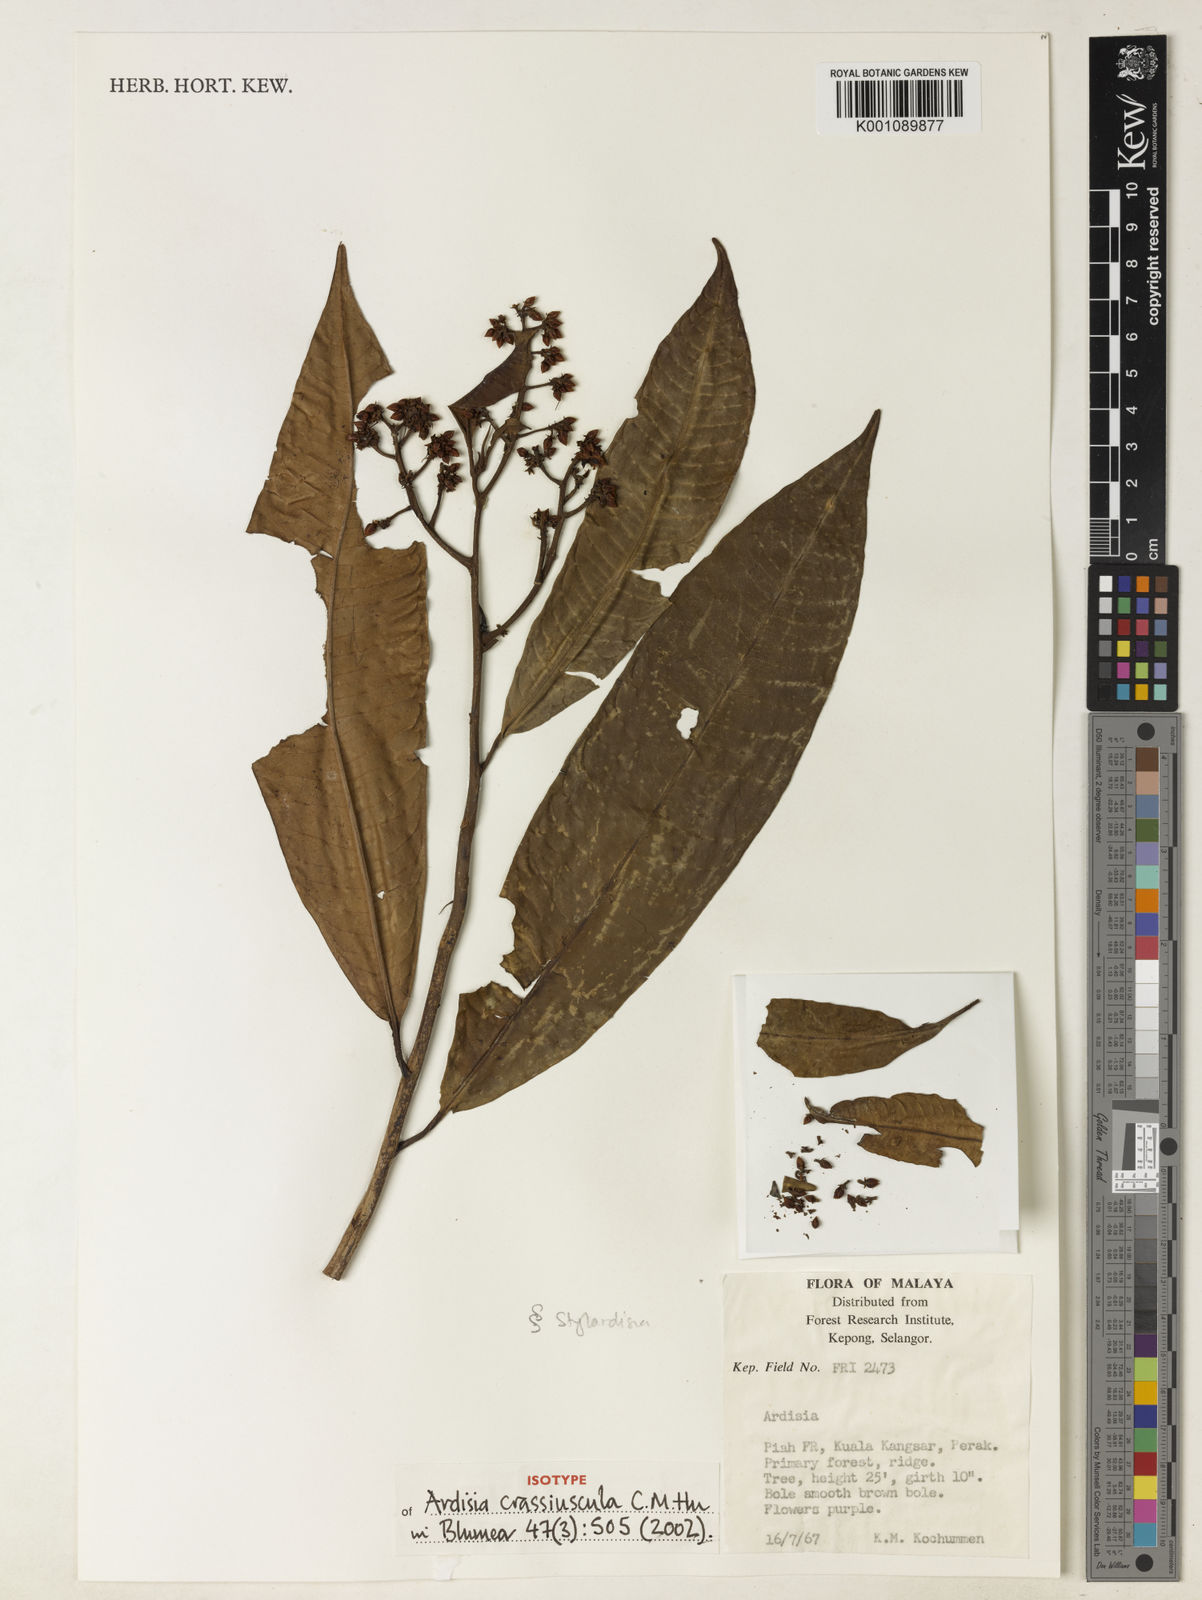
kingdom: Plantae
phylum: Tracheophyta
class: Magnoliopsida
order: Ericales
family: Primulaceae
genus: Ardisia
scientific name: Ardisia crassiuscula
